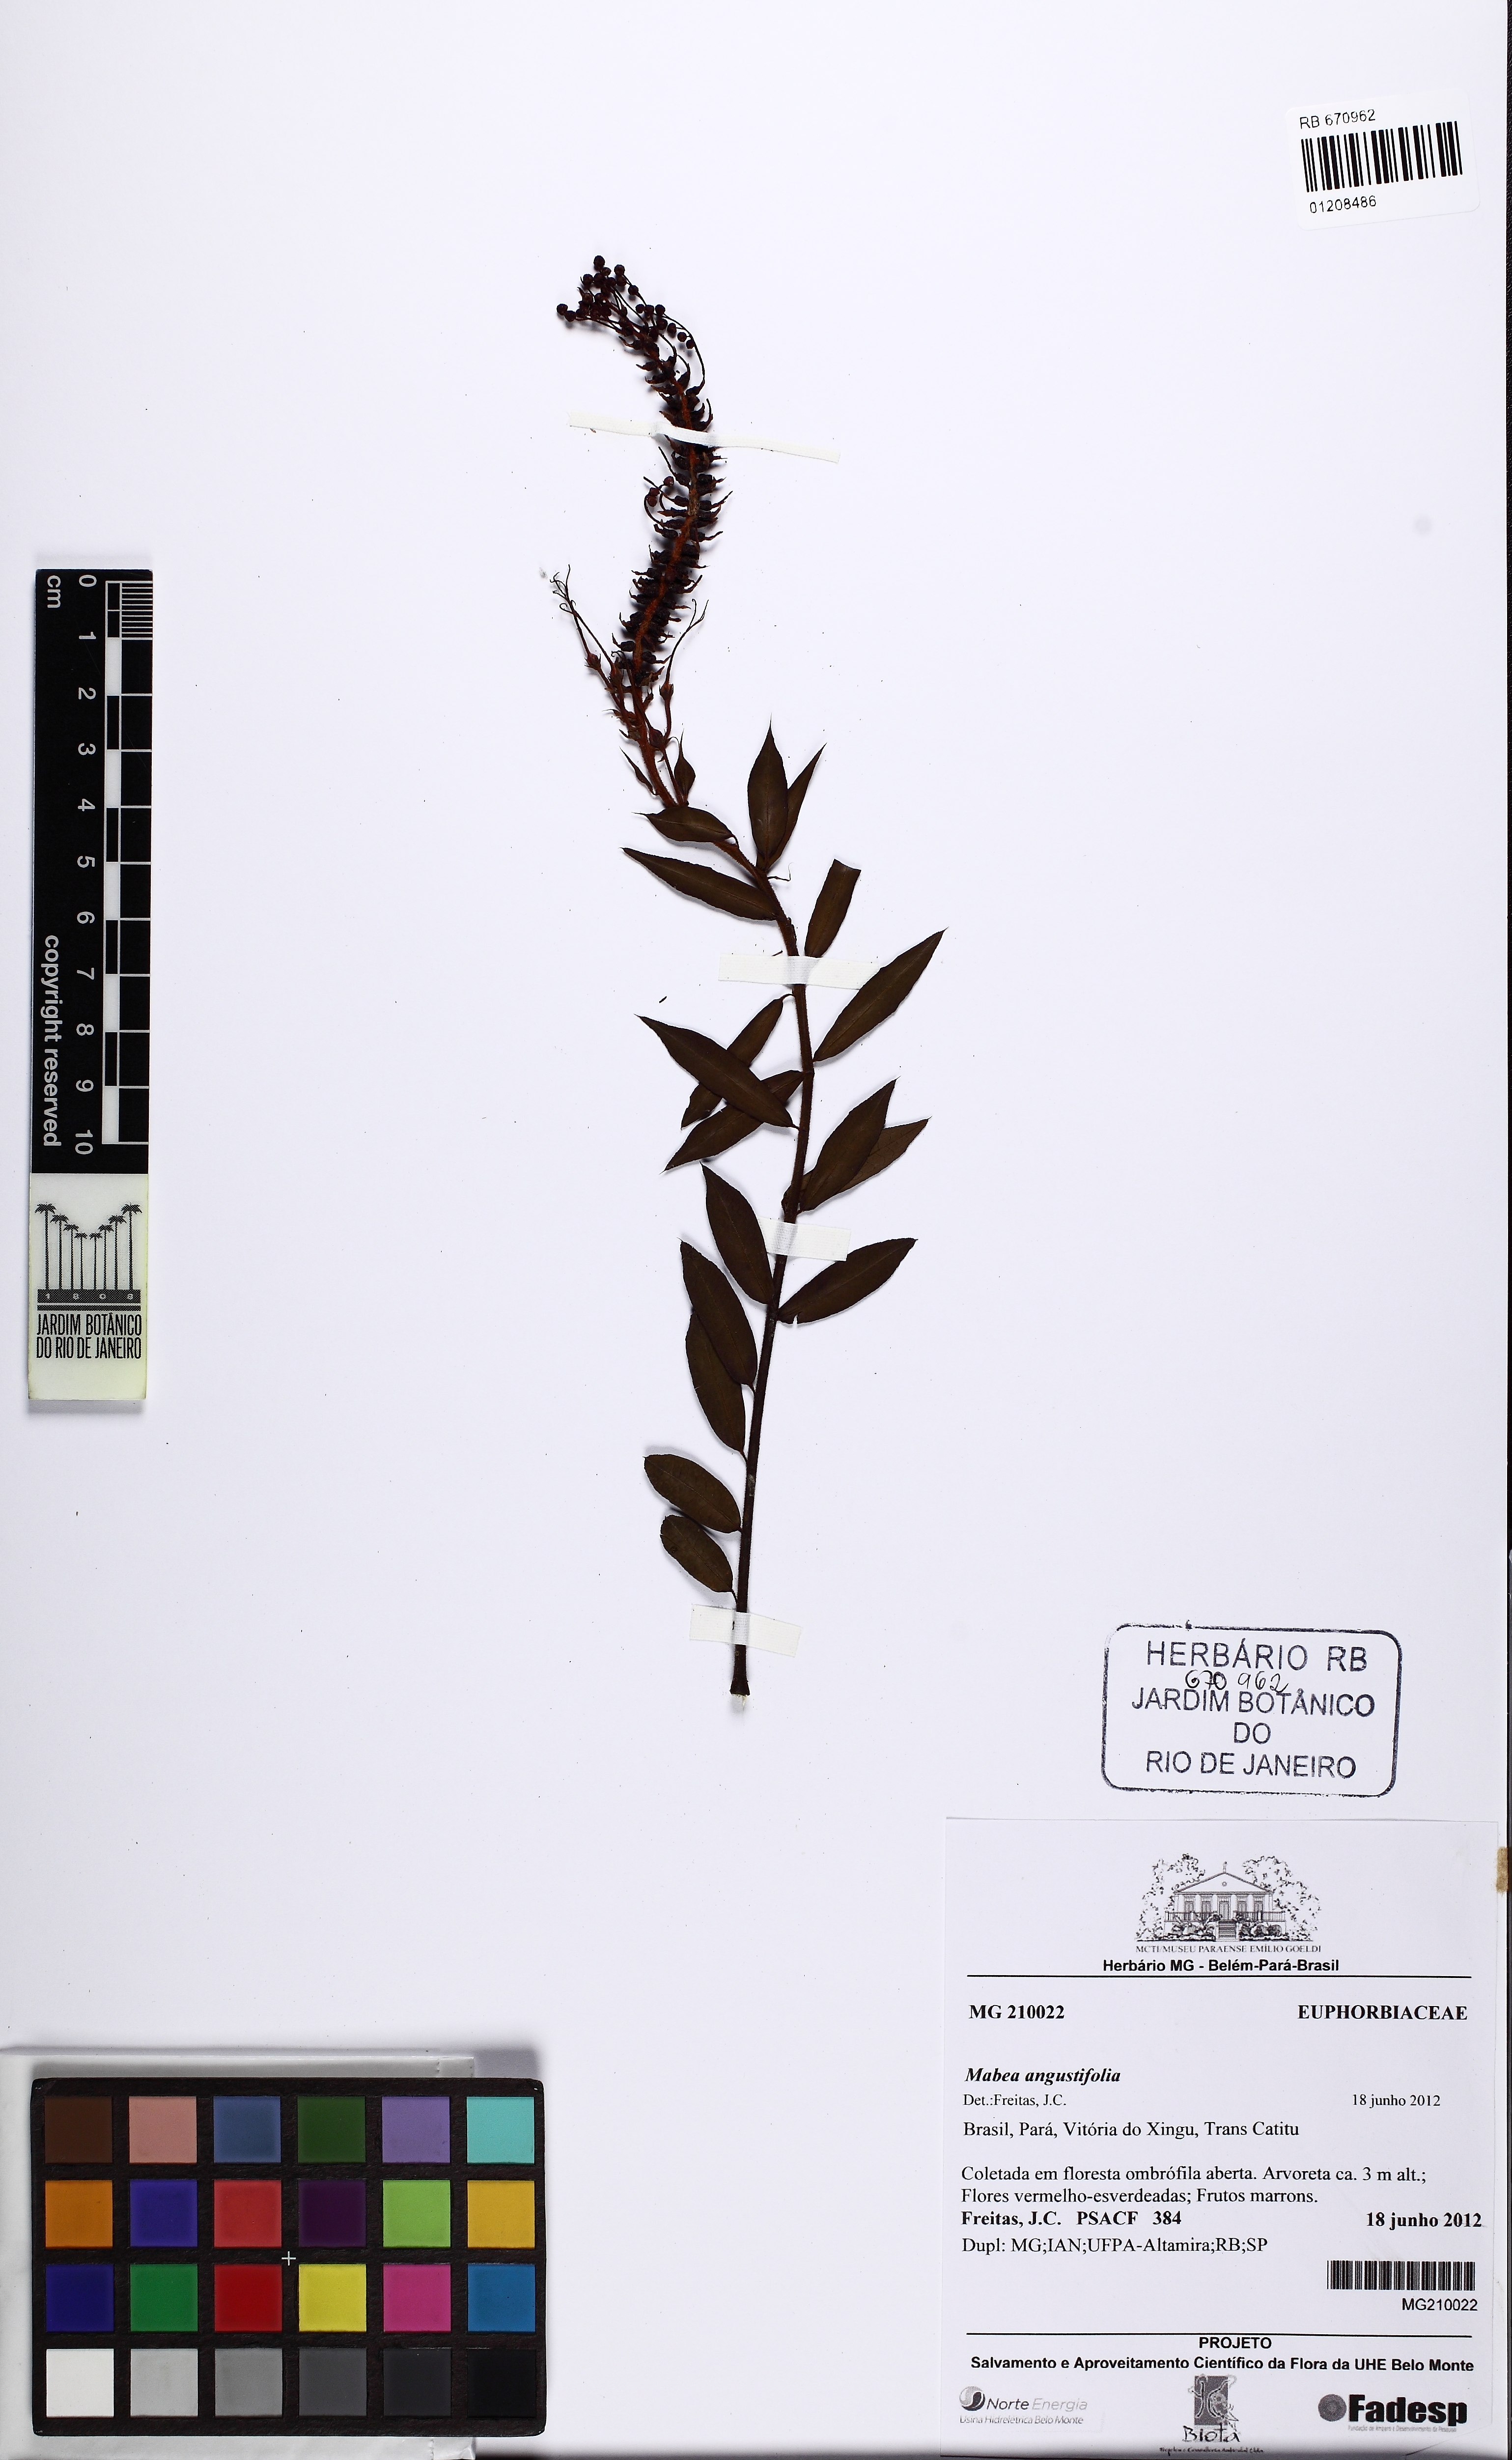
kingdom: Plantae
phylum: Tracheophyta
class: Magnoliopsida
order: Malpighiales
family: Euphorbiaceae
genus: Mabea
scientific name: Mabea angustifolia
